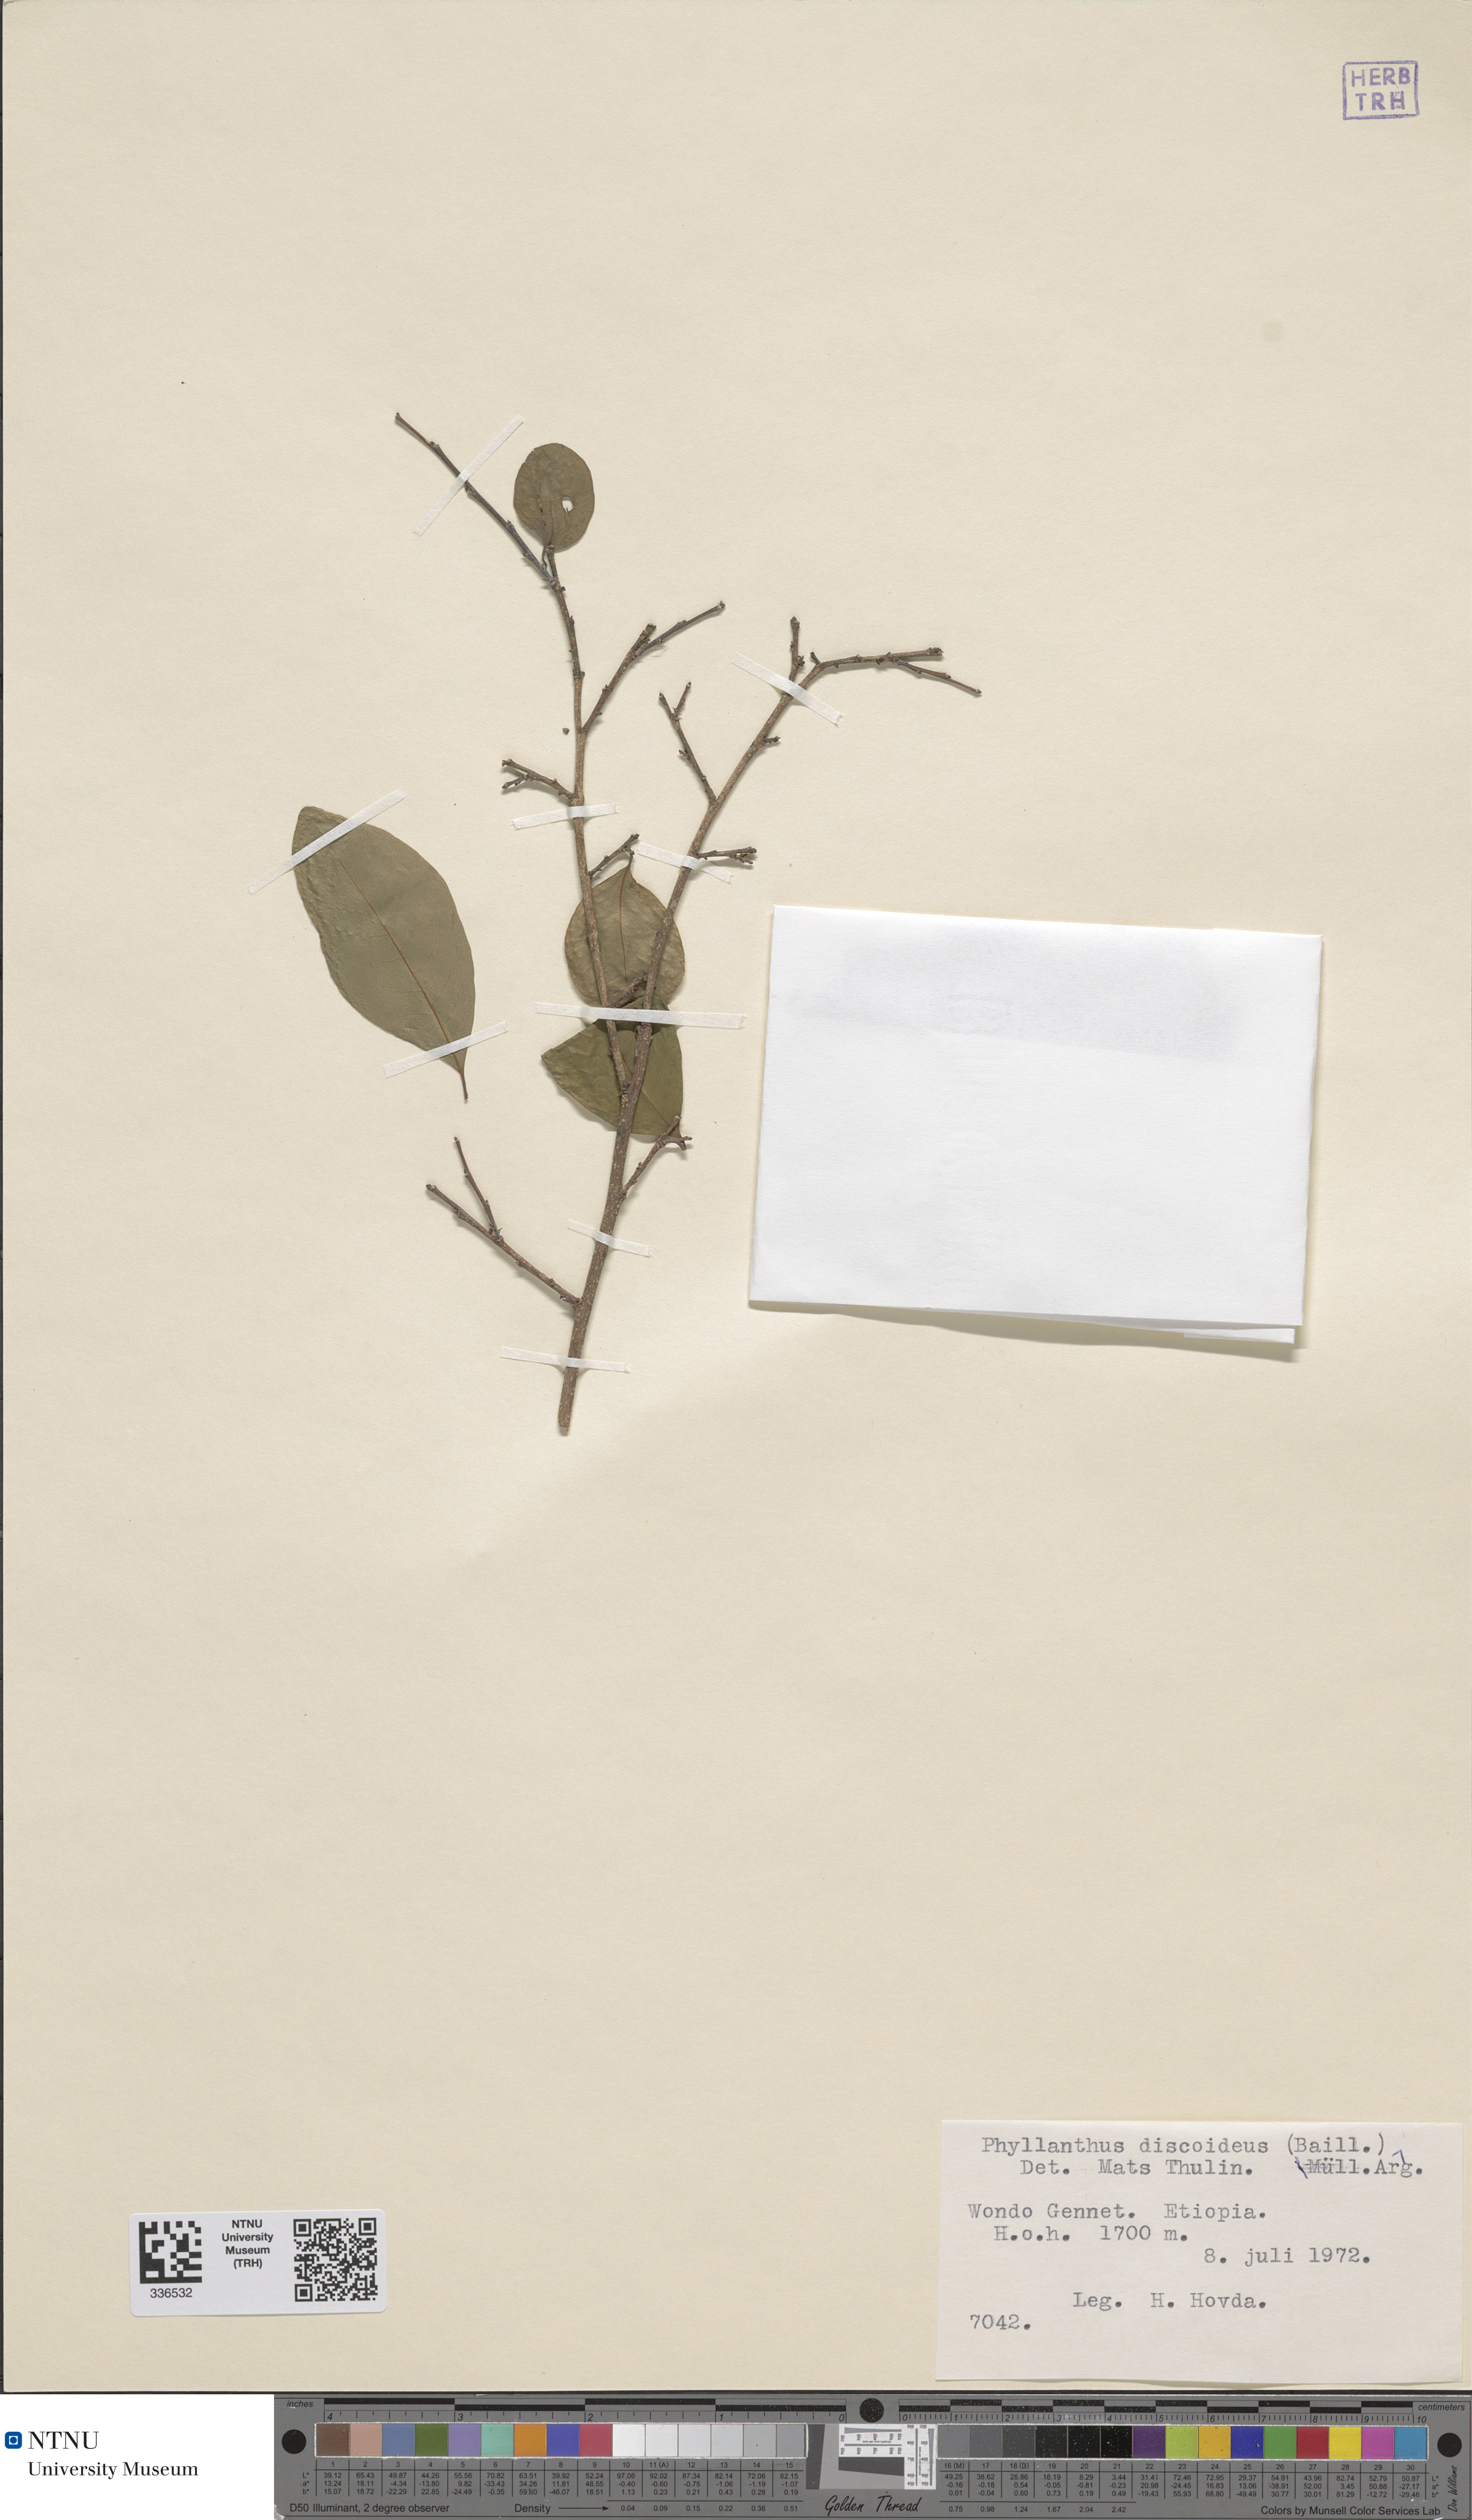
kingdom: Plantae
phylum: Tracheophyta
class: Magnoliopsida
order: Malpighiales
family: Phyllanthaceae
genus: Margaritaria
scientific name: Margaritaria discoidea
